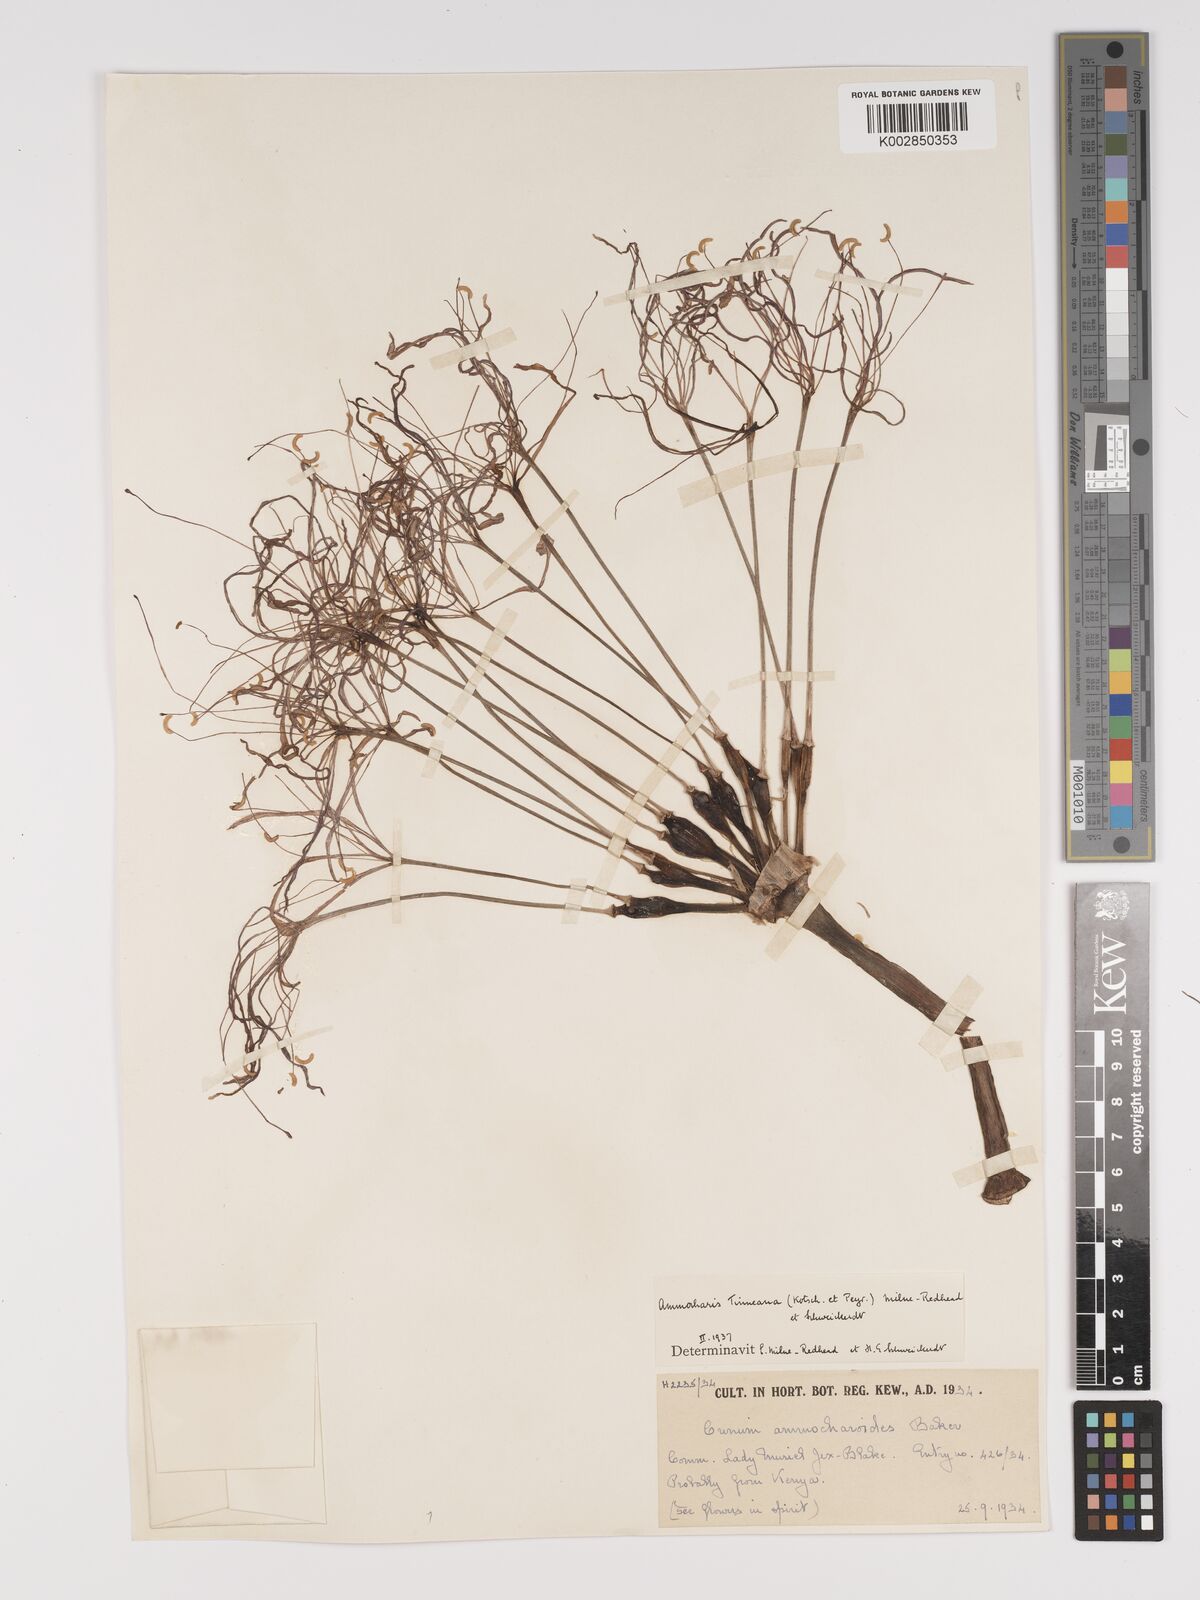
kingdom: Plantae
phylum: Tracheophyta
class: Liliopsida
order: Asparagales
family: Amaryllidaceae
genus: Ammocharis
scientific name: Ammocharis tinneana
